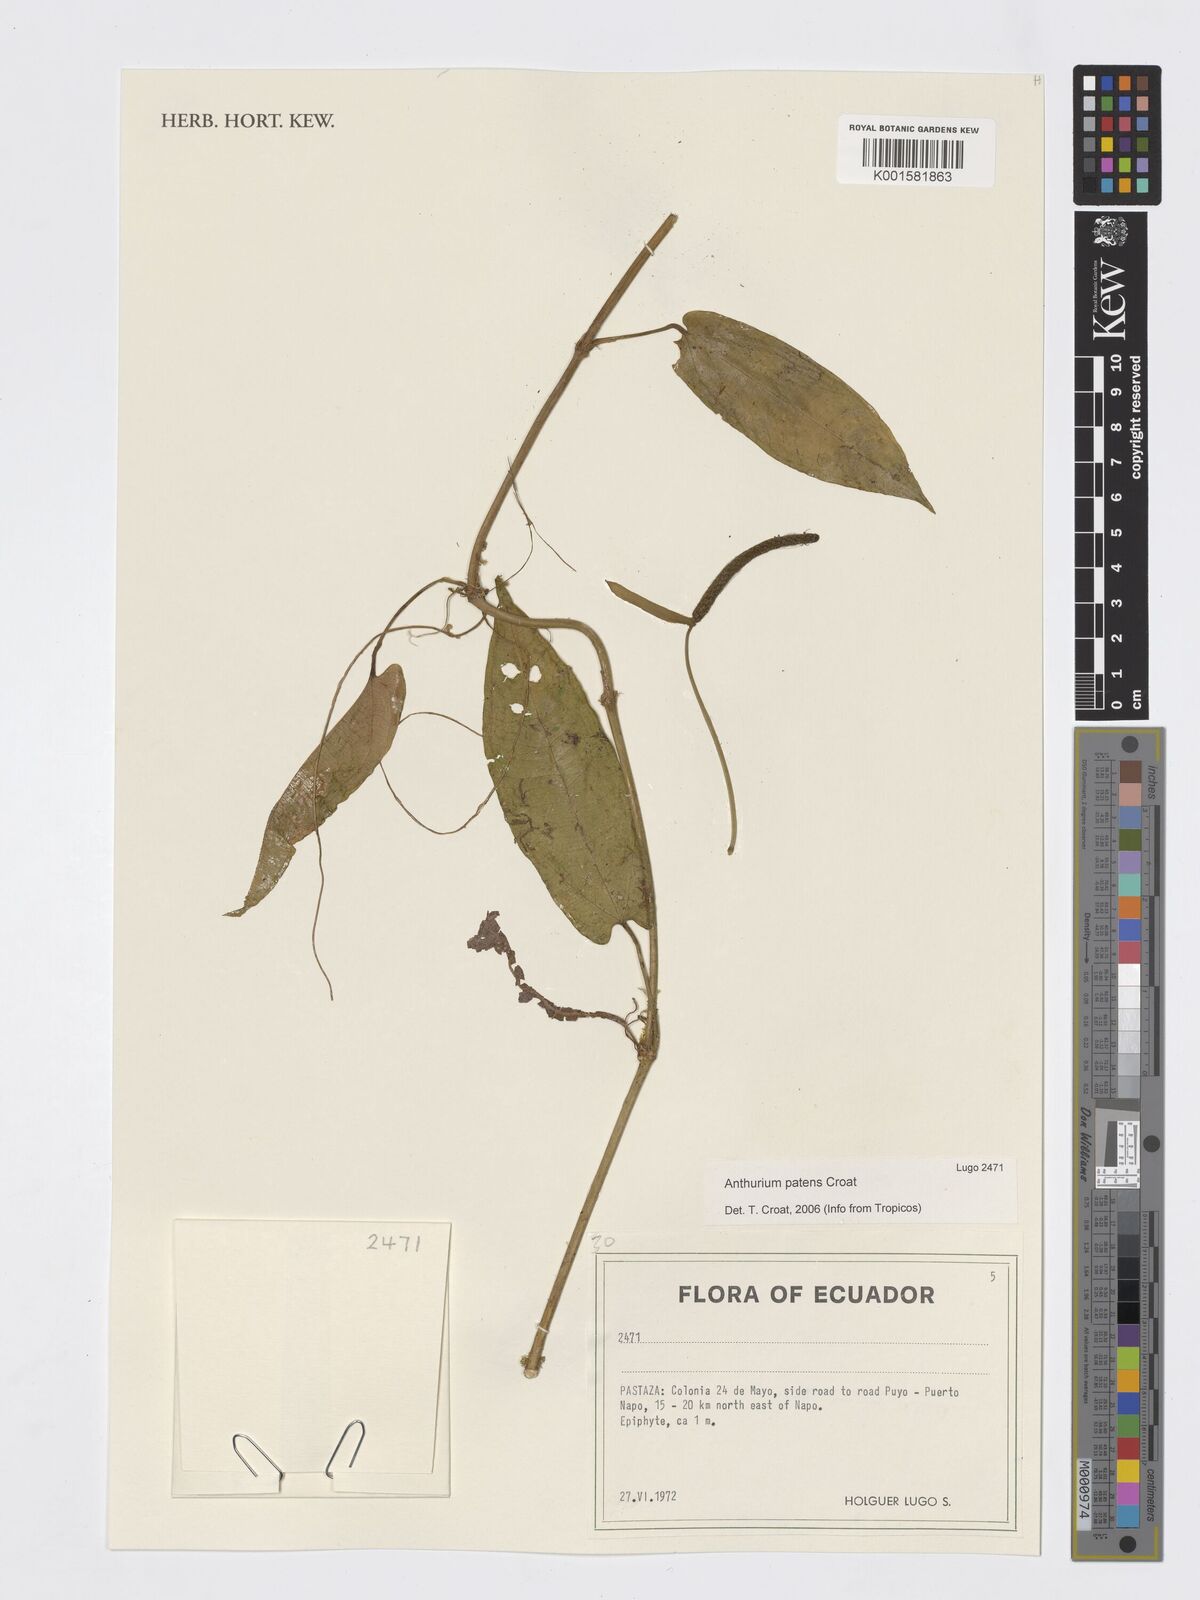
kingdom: Plantae
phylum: Tracheophyta
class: Liliopsida
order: Alismatales
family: Araceae
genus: Anthurium
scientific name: Anthurium patens
